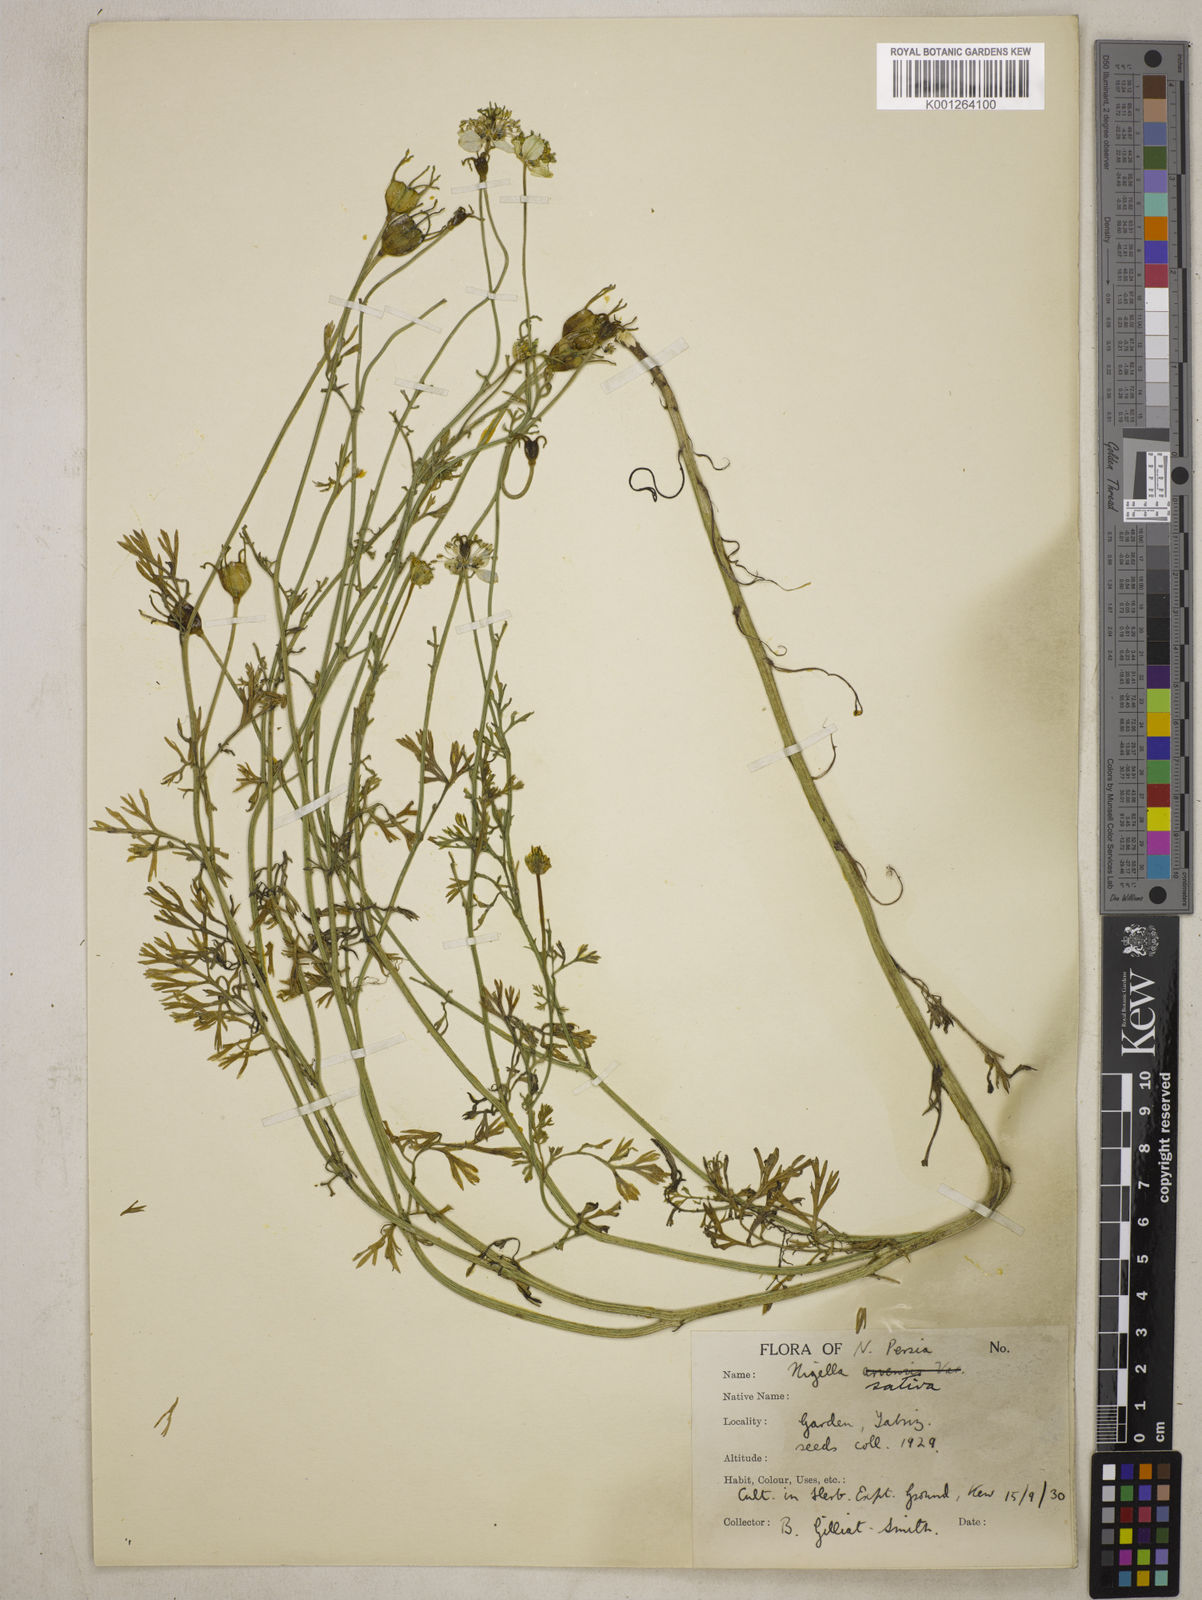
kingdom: Plantae
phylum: Tracheophyta
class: Magnoliopsida
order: Ranunculales
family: Ranunculaceae
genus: Nigella
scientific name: Nigella sativa
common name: Black-cumin
